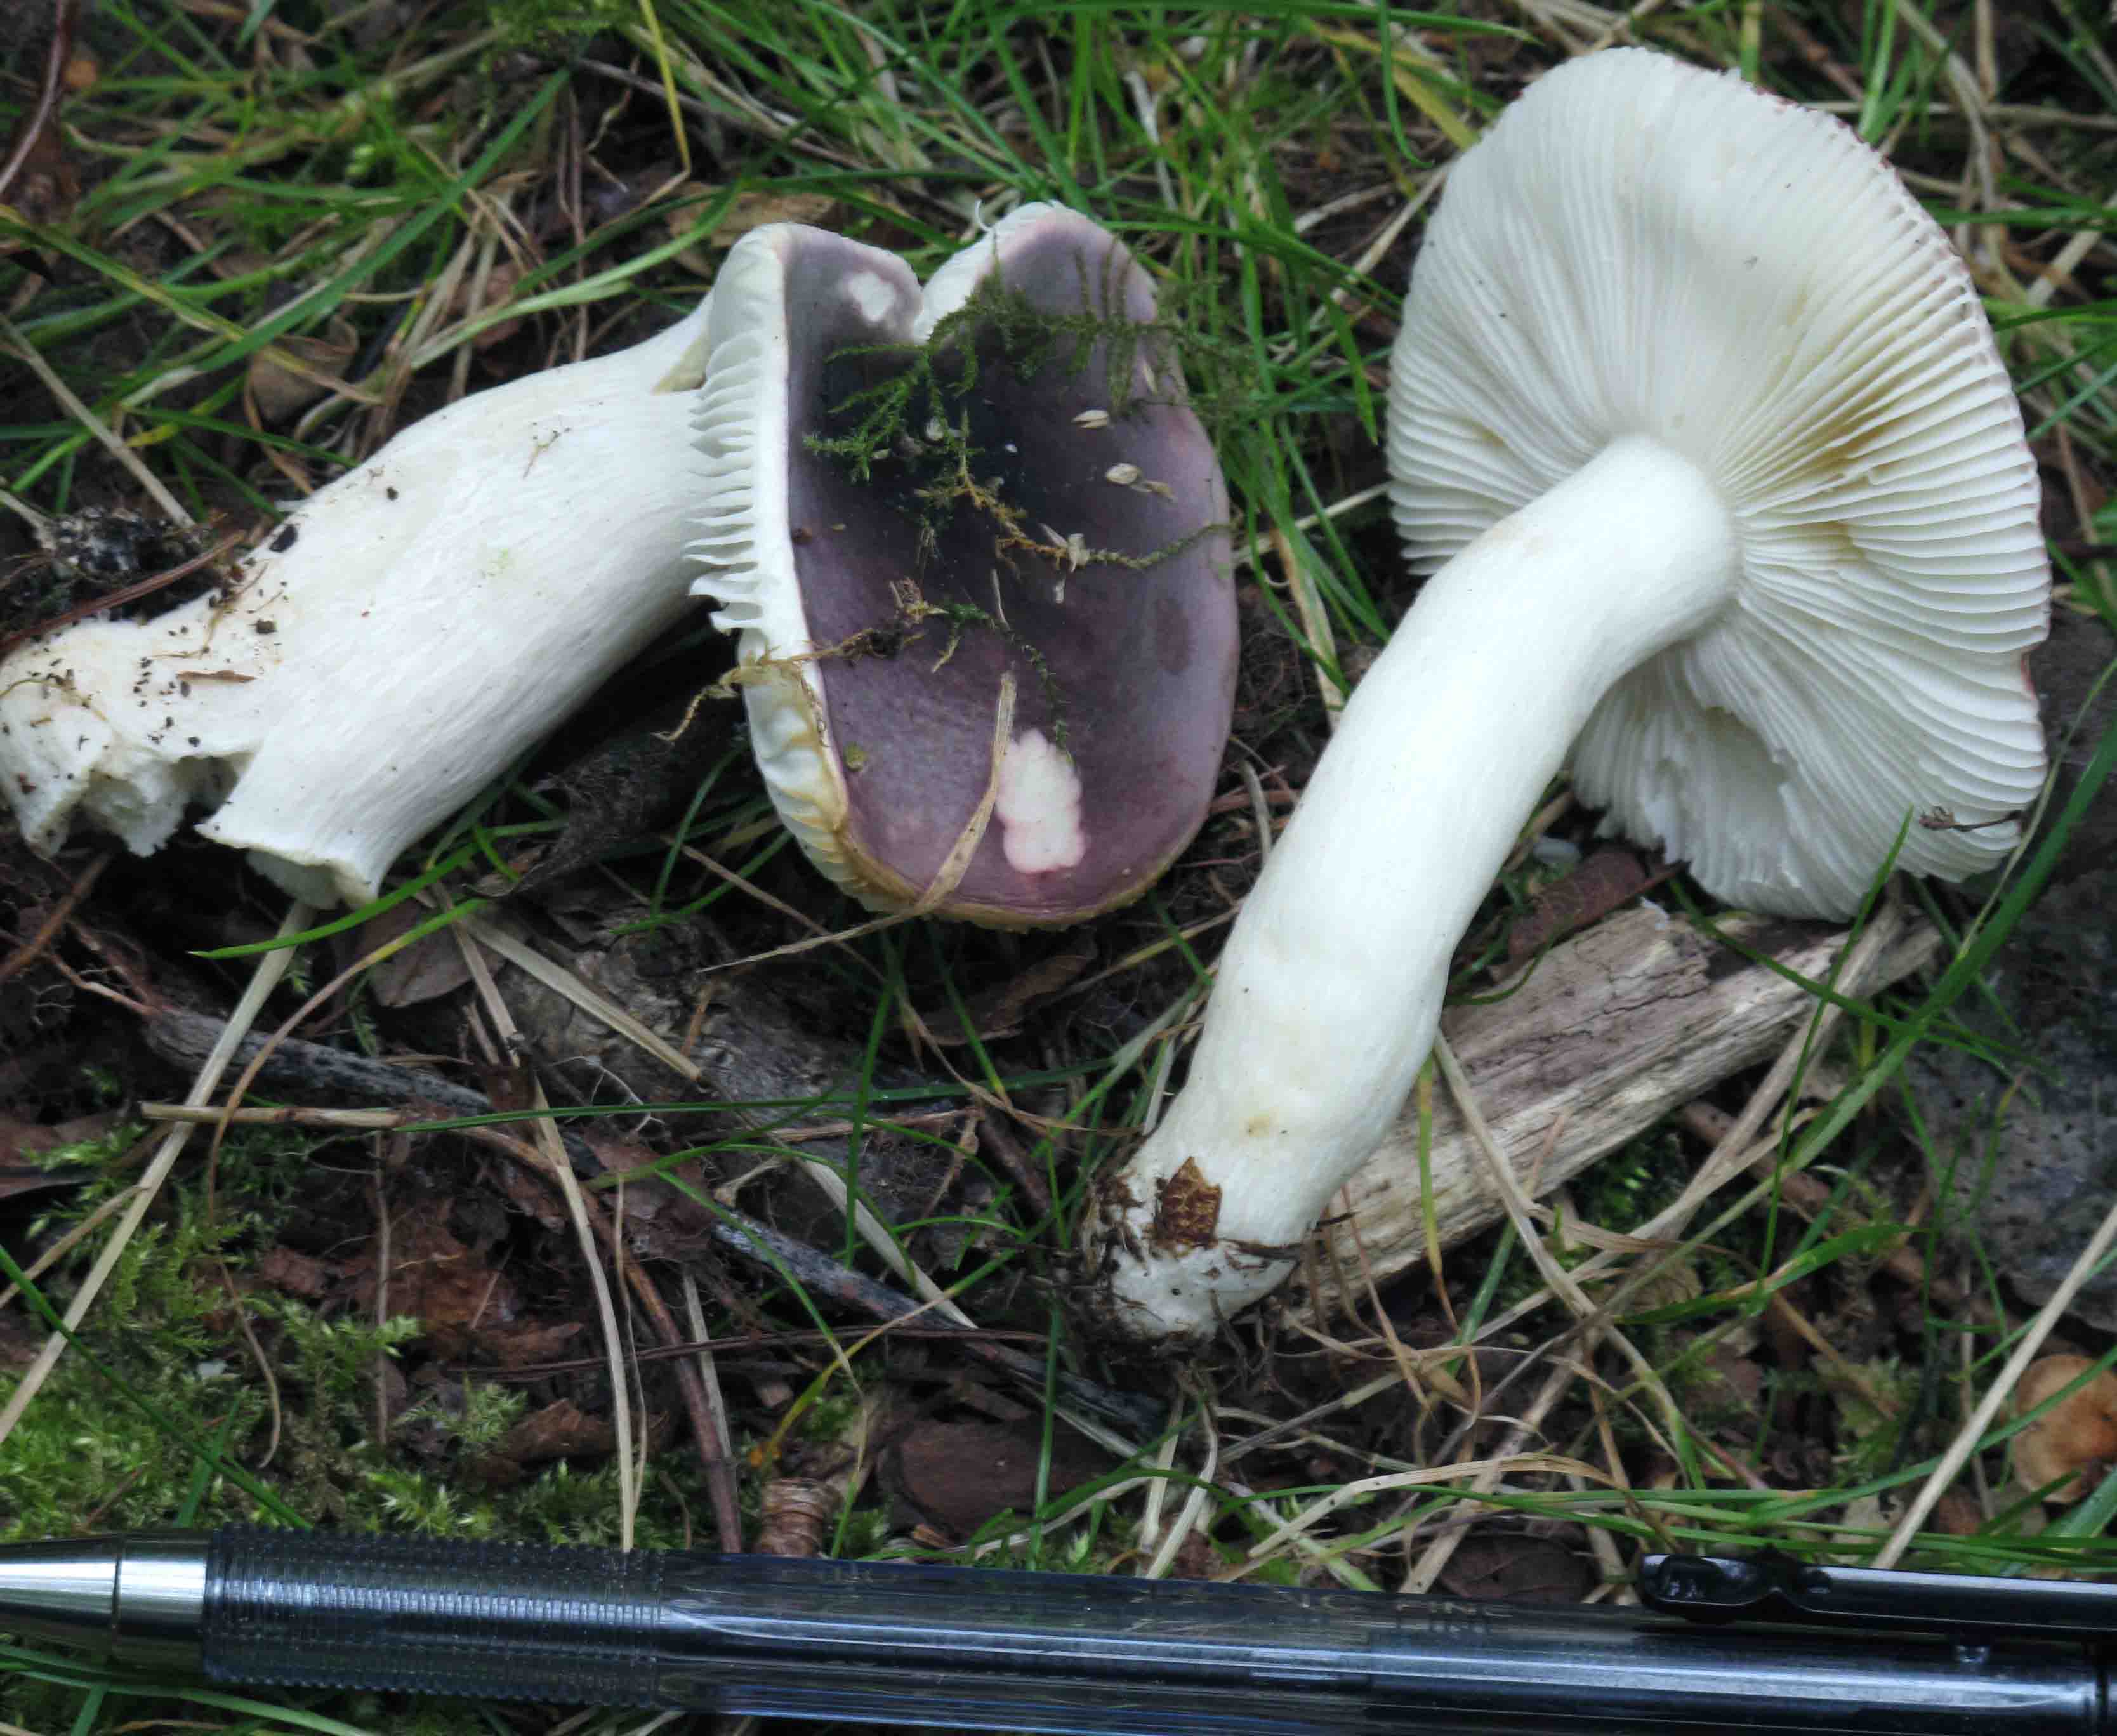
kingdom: Fungi
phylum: Basidiomycota
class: Agaricomycetes
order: Russulales
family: Russulaceae
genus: Russula
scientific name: Russula pelargonia
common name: pelargonie-skørhat
